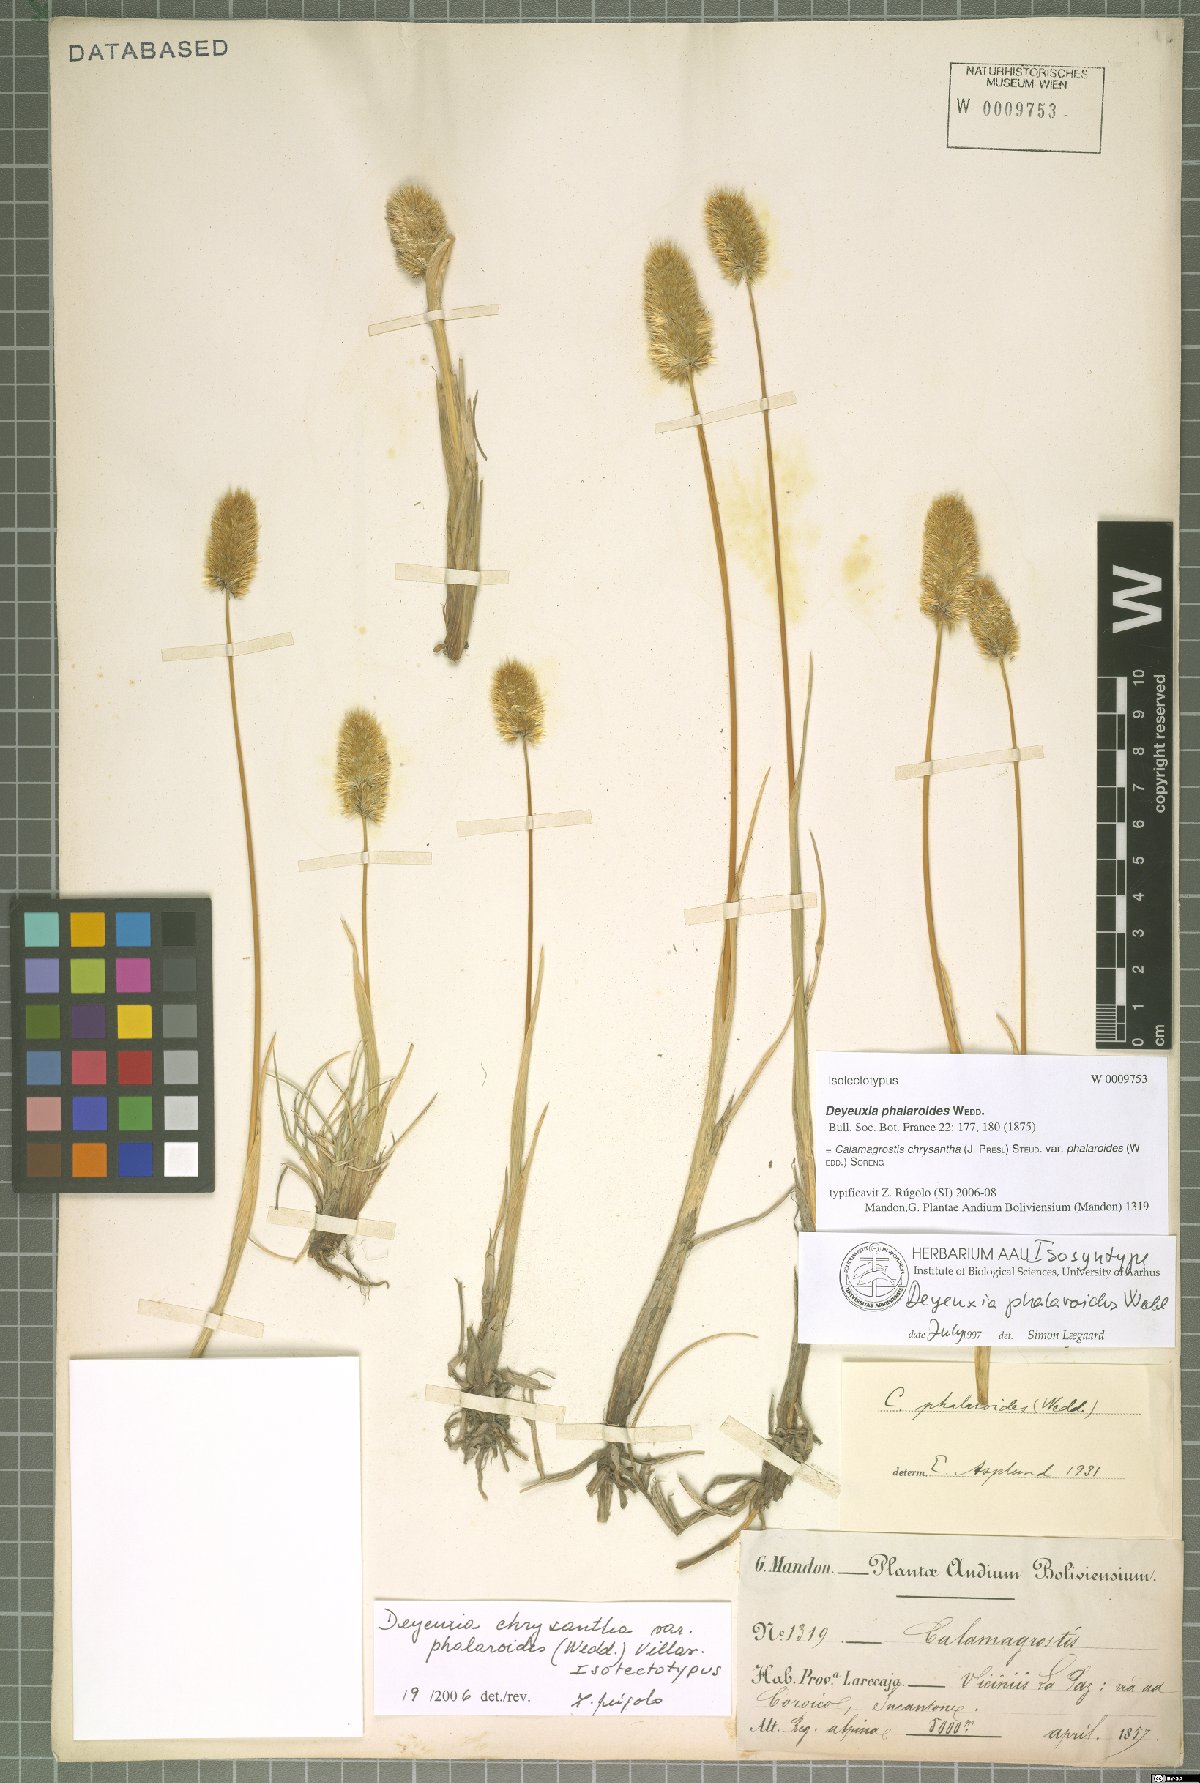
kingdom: Plantae
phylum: Tracheophyta
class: Liliopsida
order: Poales
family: Poaceae
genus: Deschampsia
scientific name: Deschampsia chrysantha
